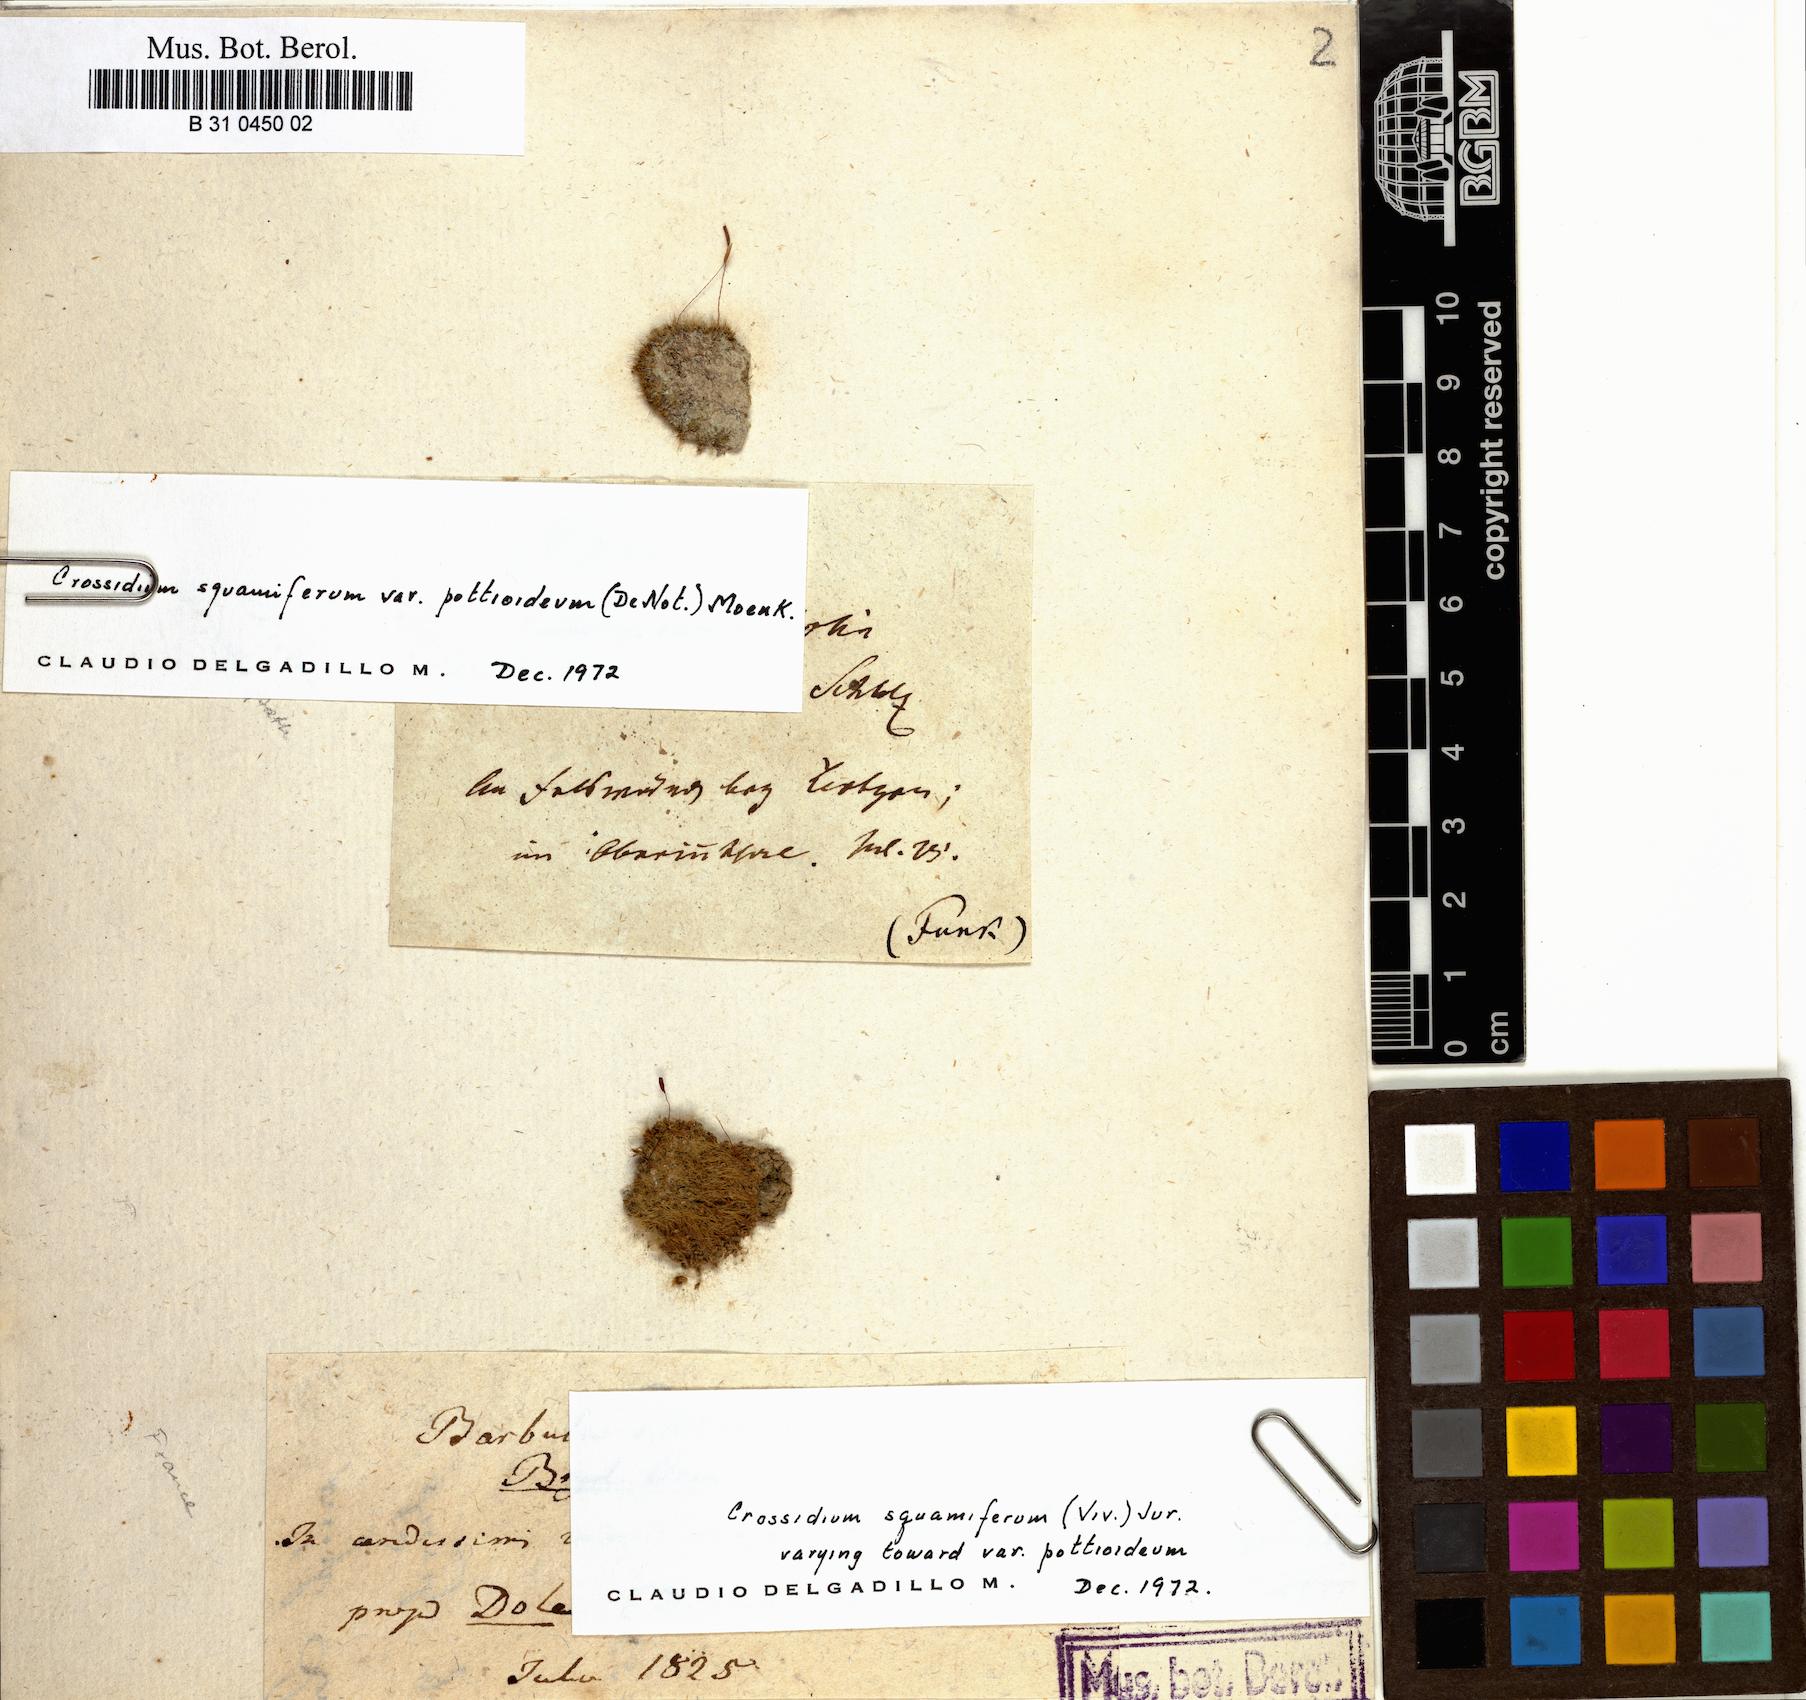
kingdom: Plantae
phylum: Bryophyta
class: Bryopsida
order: Pottiales
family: Pottiaceae
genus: Crossidium
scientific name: Crossidium squamiferum
